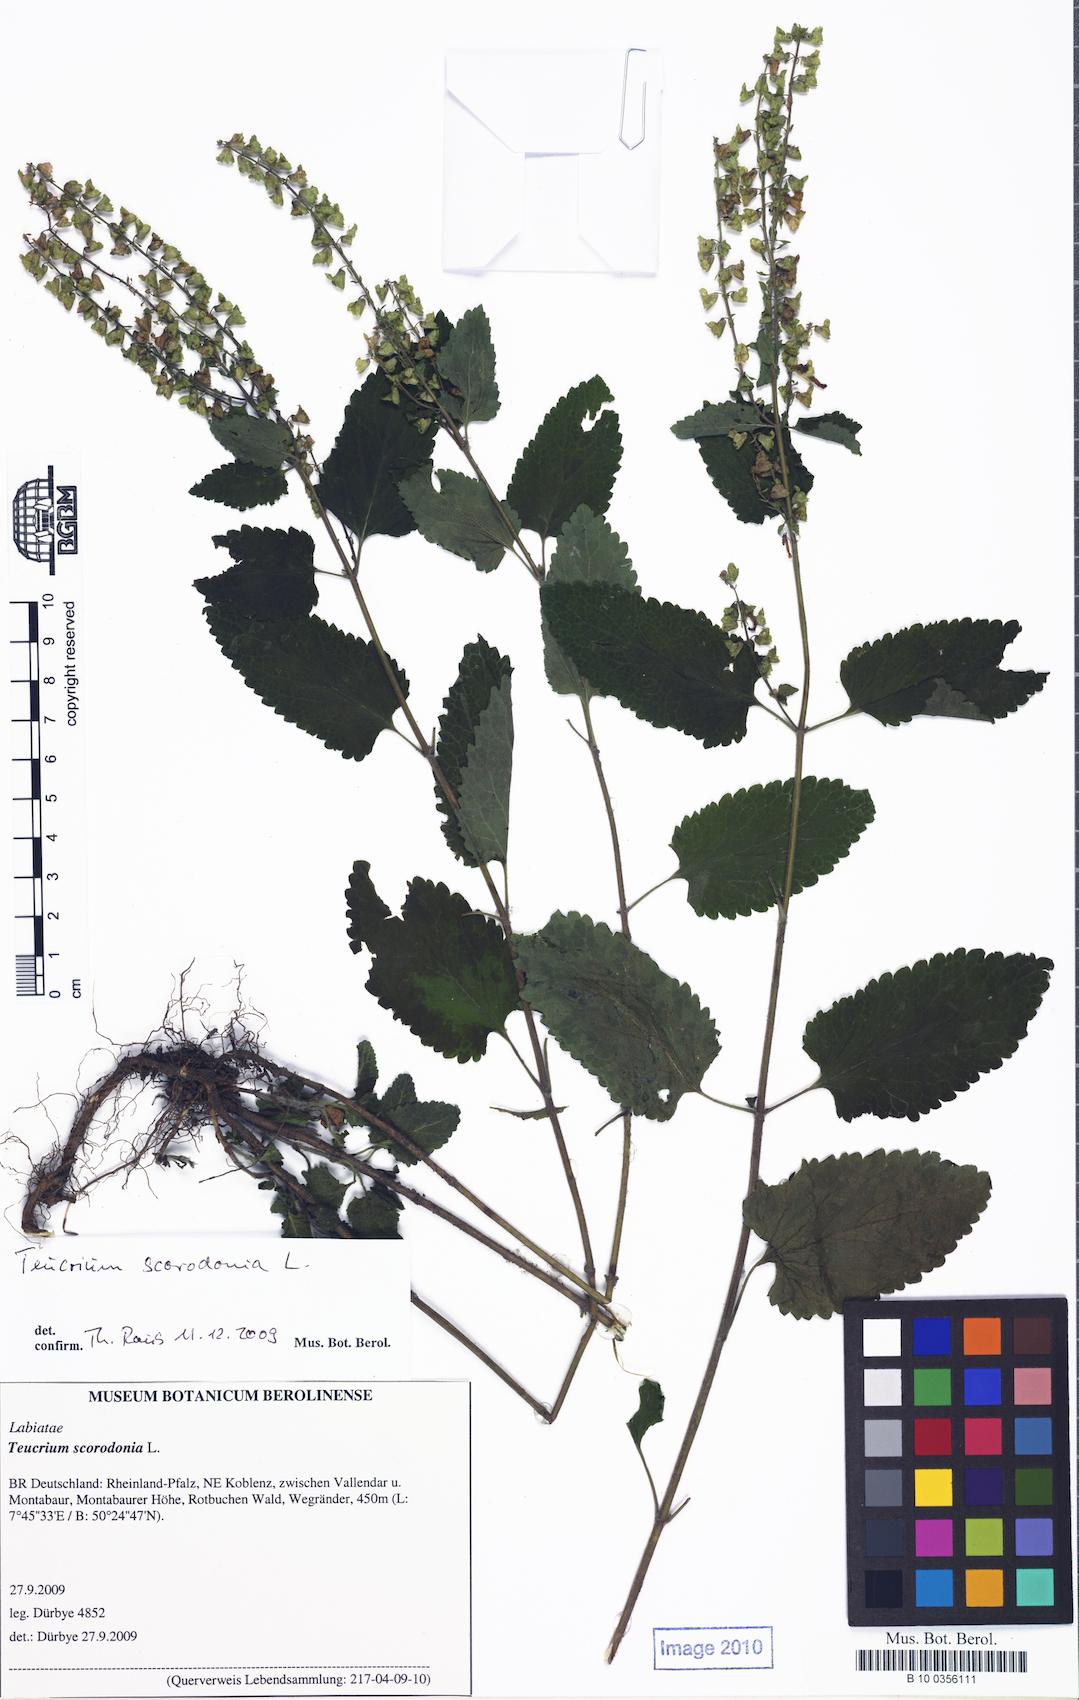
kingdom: Plantae
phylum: Tracheophyta
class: Magnoliopsida
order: Lamiales
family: Lamiaceae
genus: Teucrium
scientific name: Teucrium scorodonia
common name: Woodland germander
